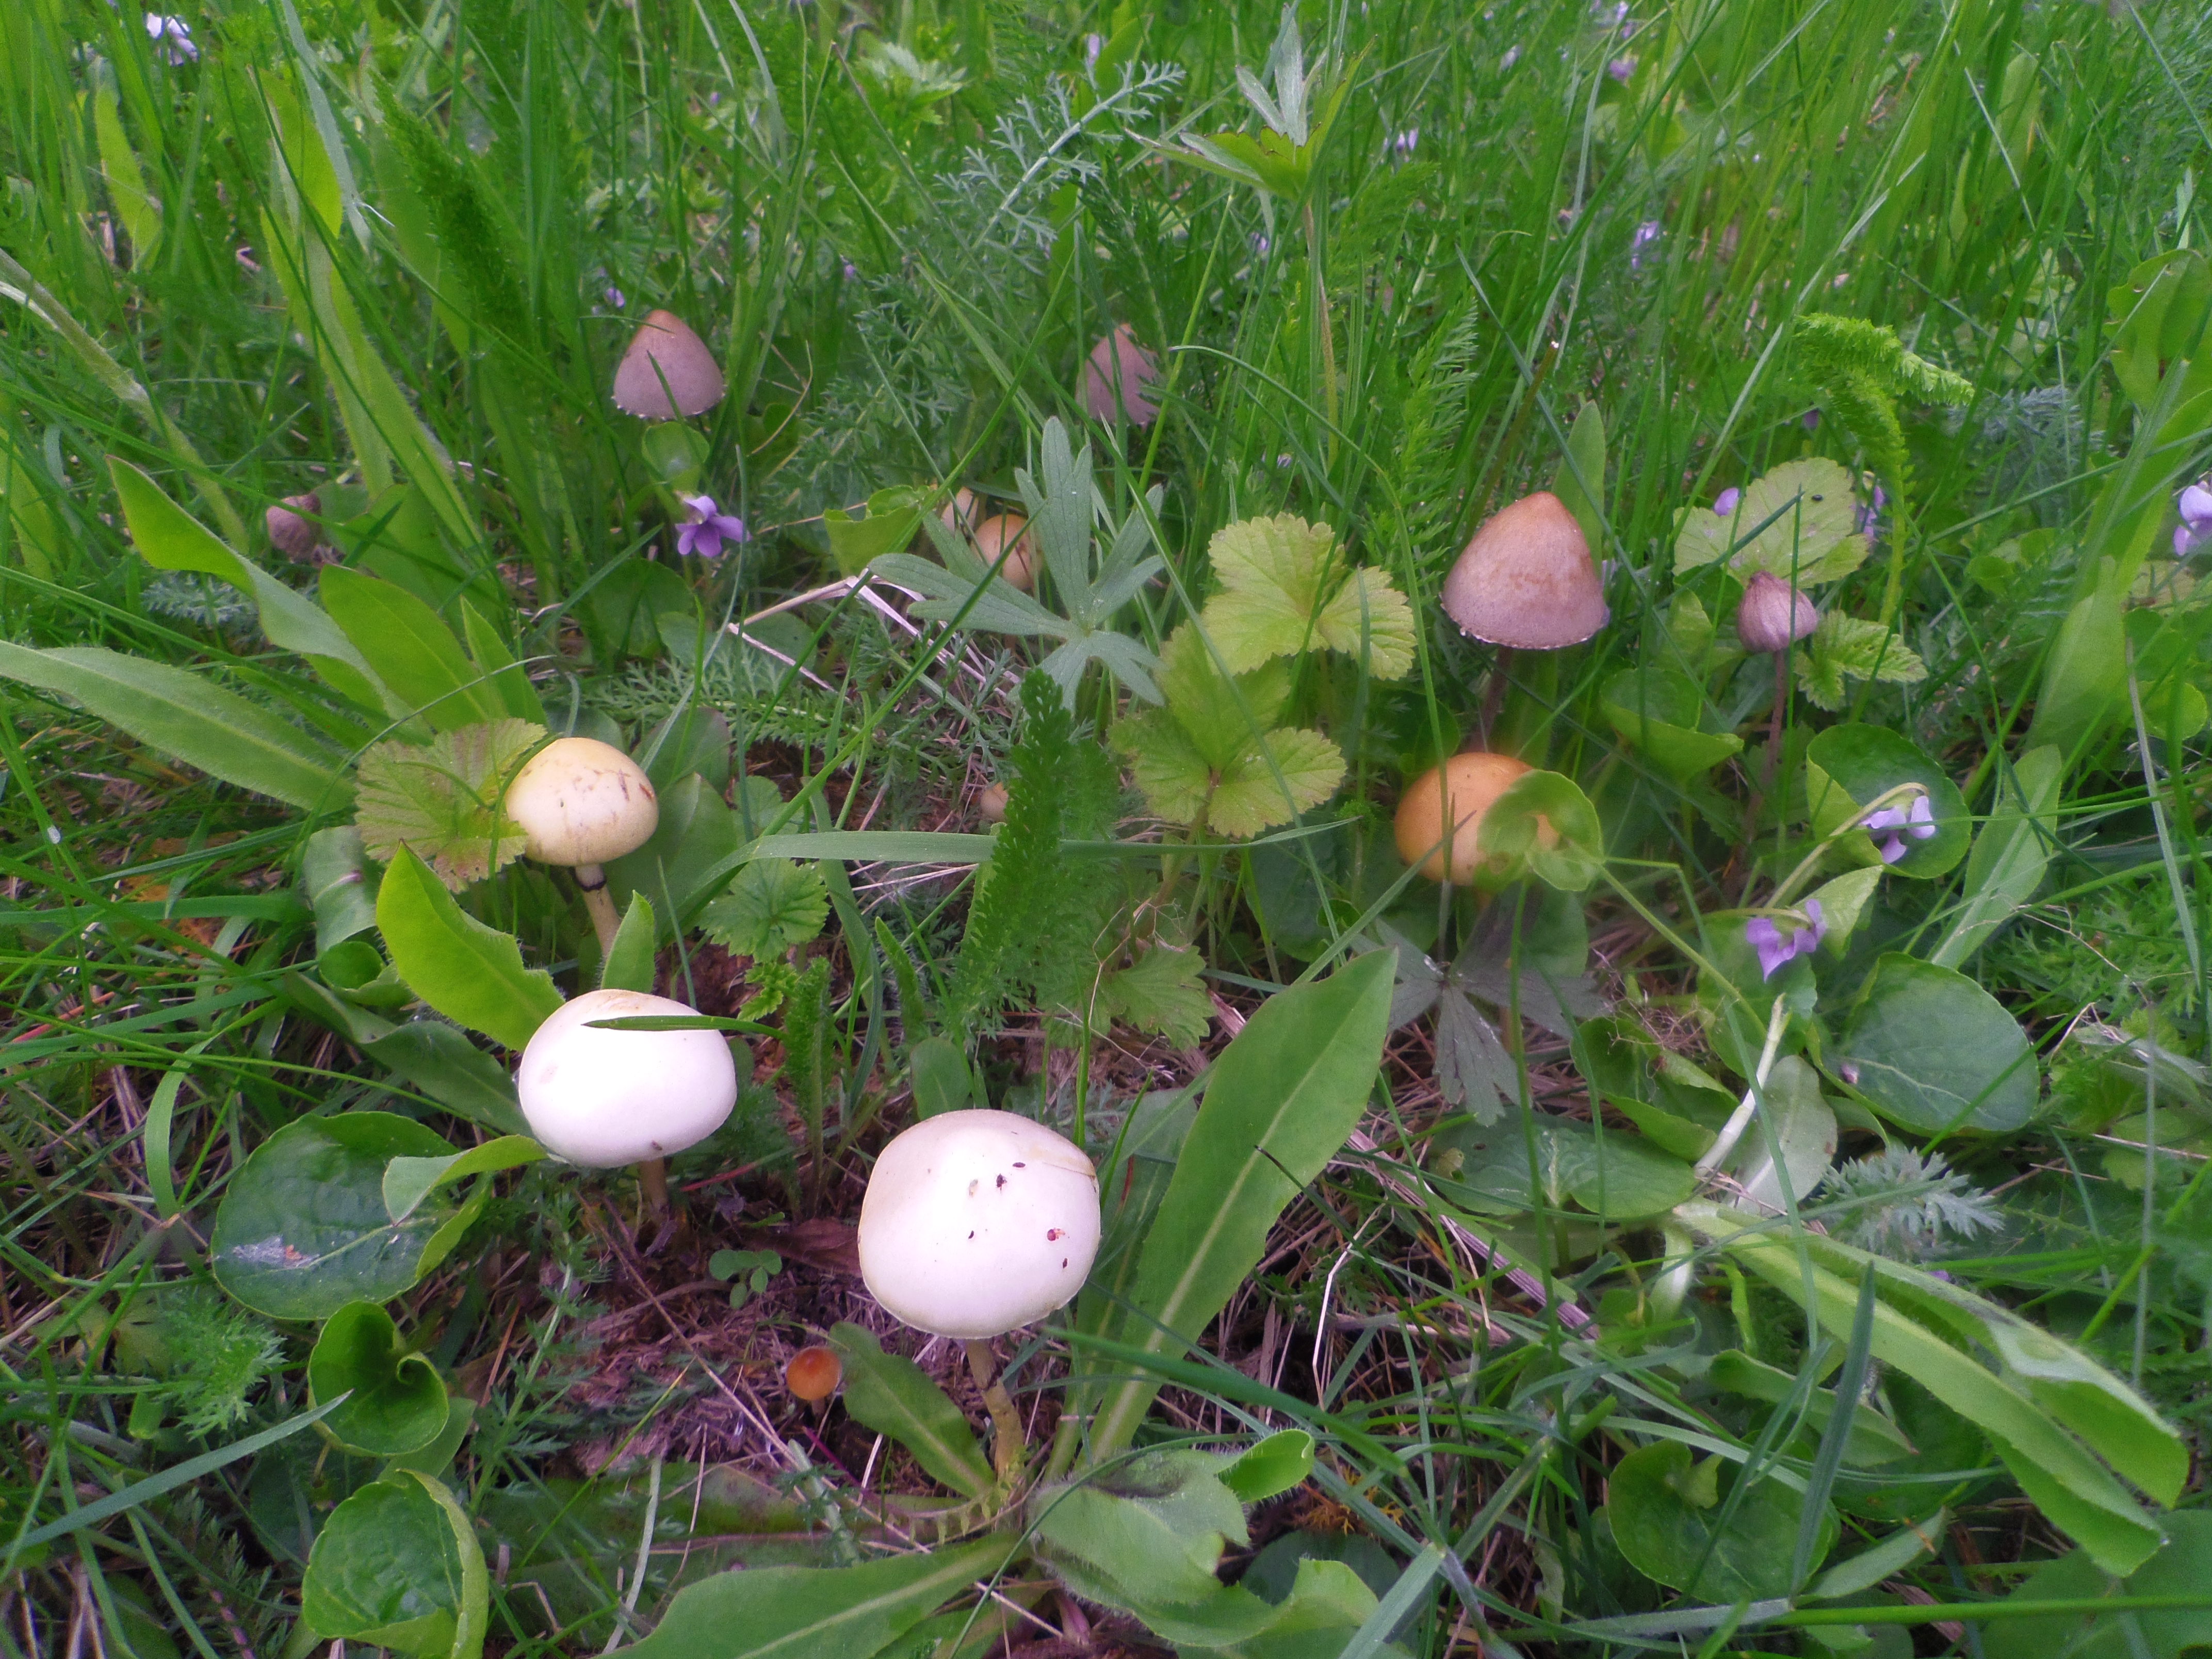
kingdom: Fungi
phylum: Basidiomycota
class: Agaricomycetes
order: Agaricales
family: Strophariaceae
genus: Protostropharia
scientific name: Protostropharia semiglobata
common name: Dung roundhead
